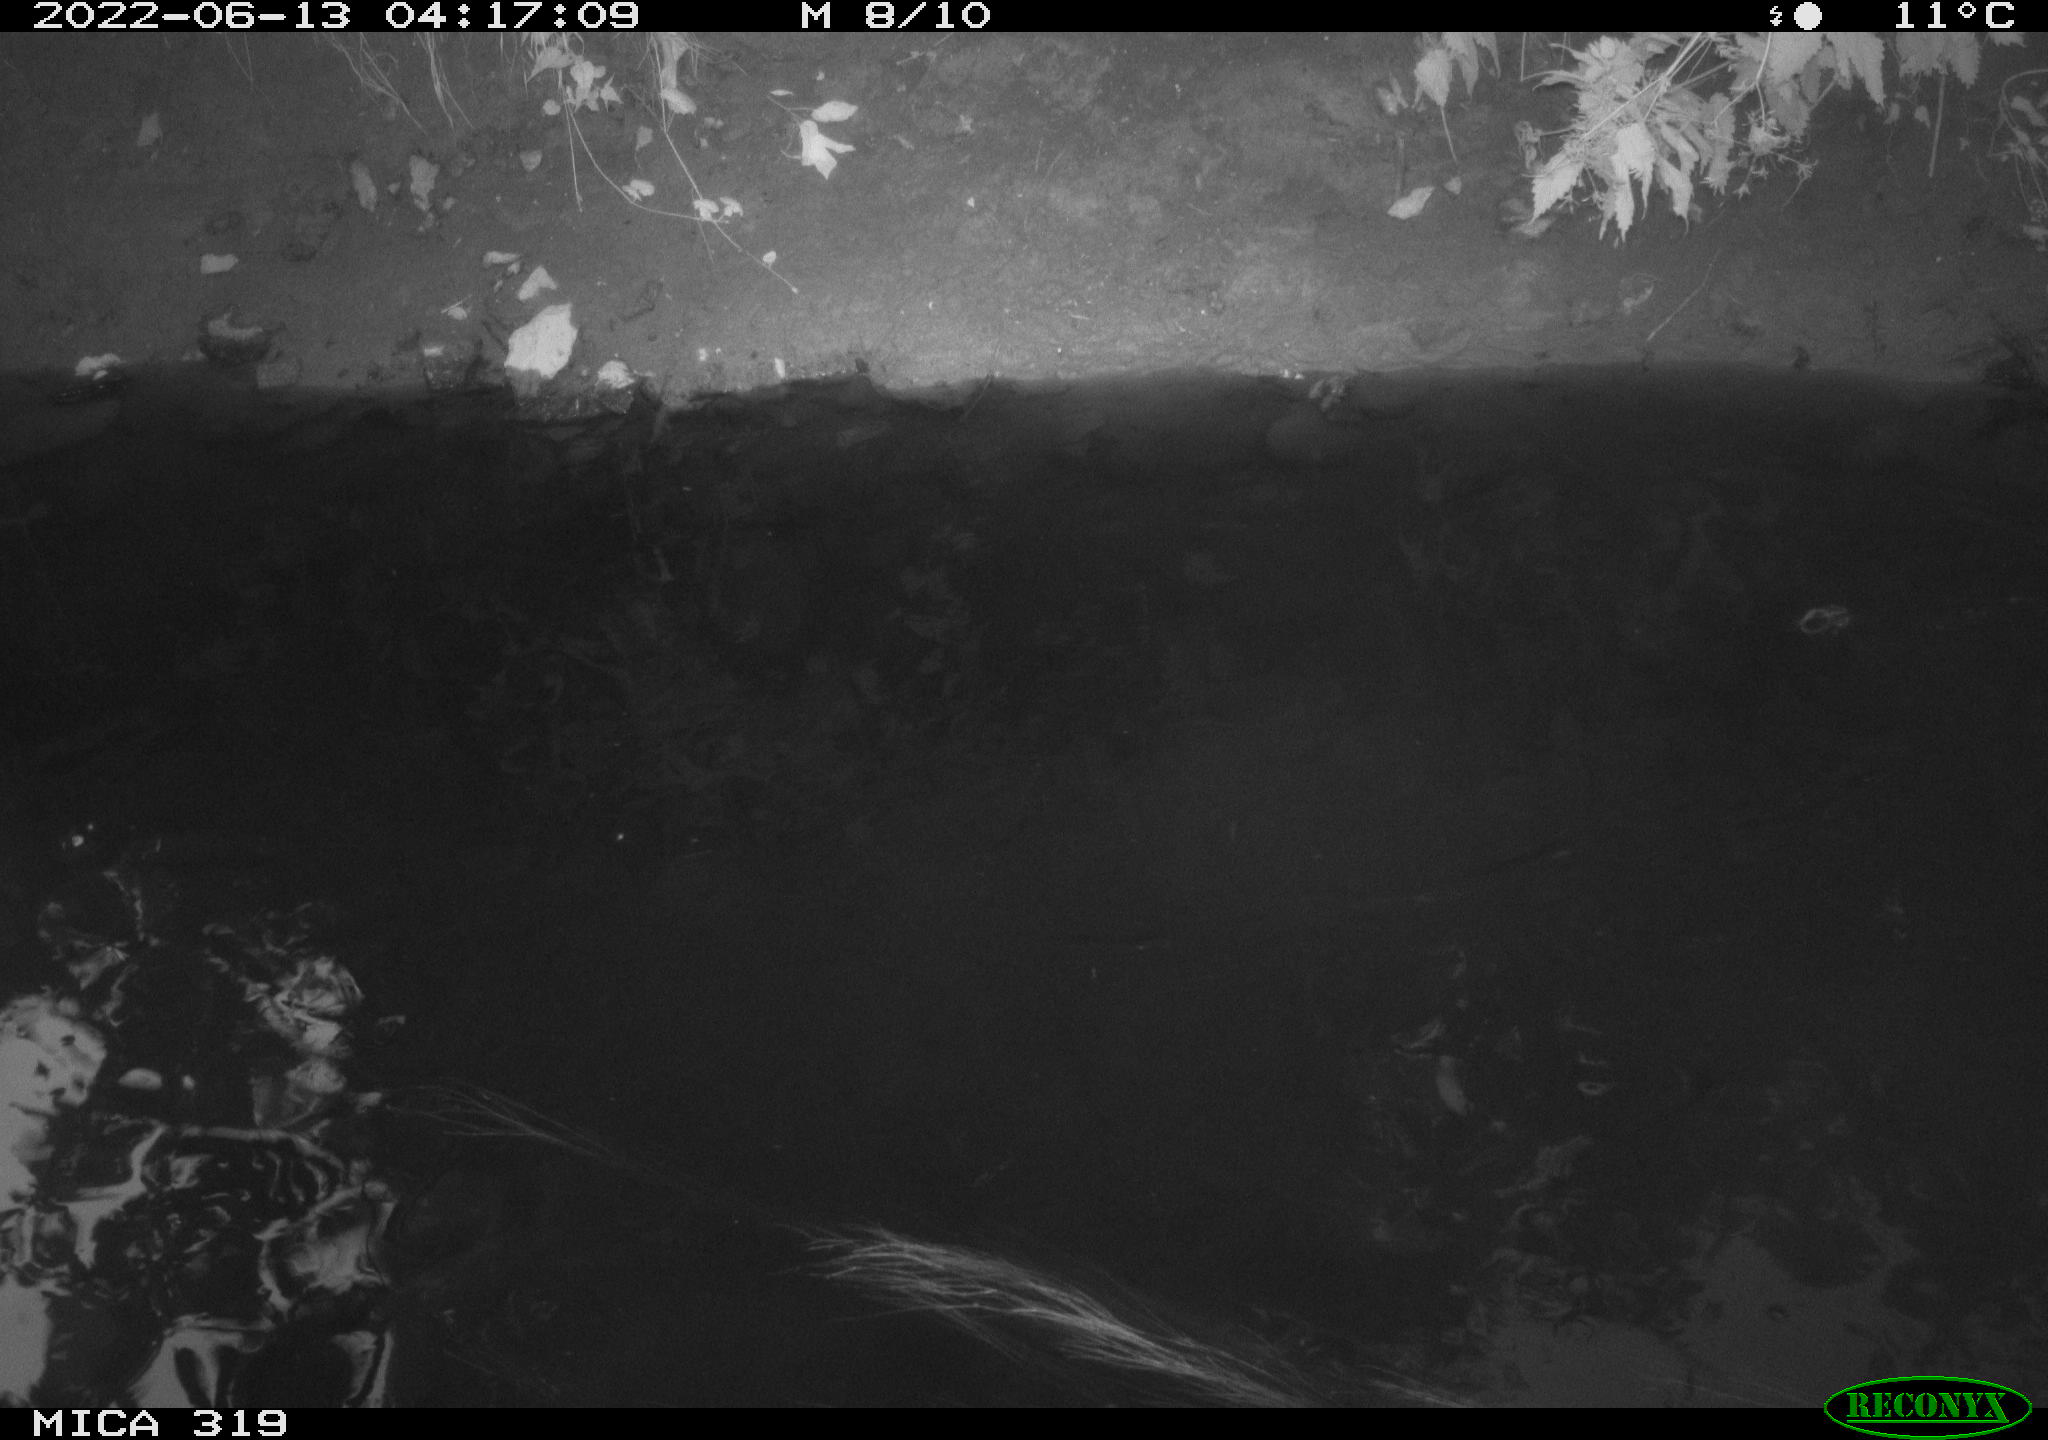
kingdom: Animalia
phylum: Chordata
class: Aves
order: Anseriformes
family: Anatidae
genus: Anas
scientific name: Anas
